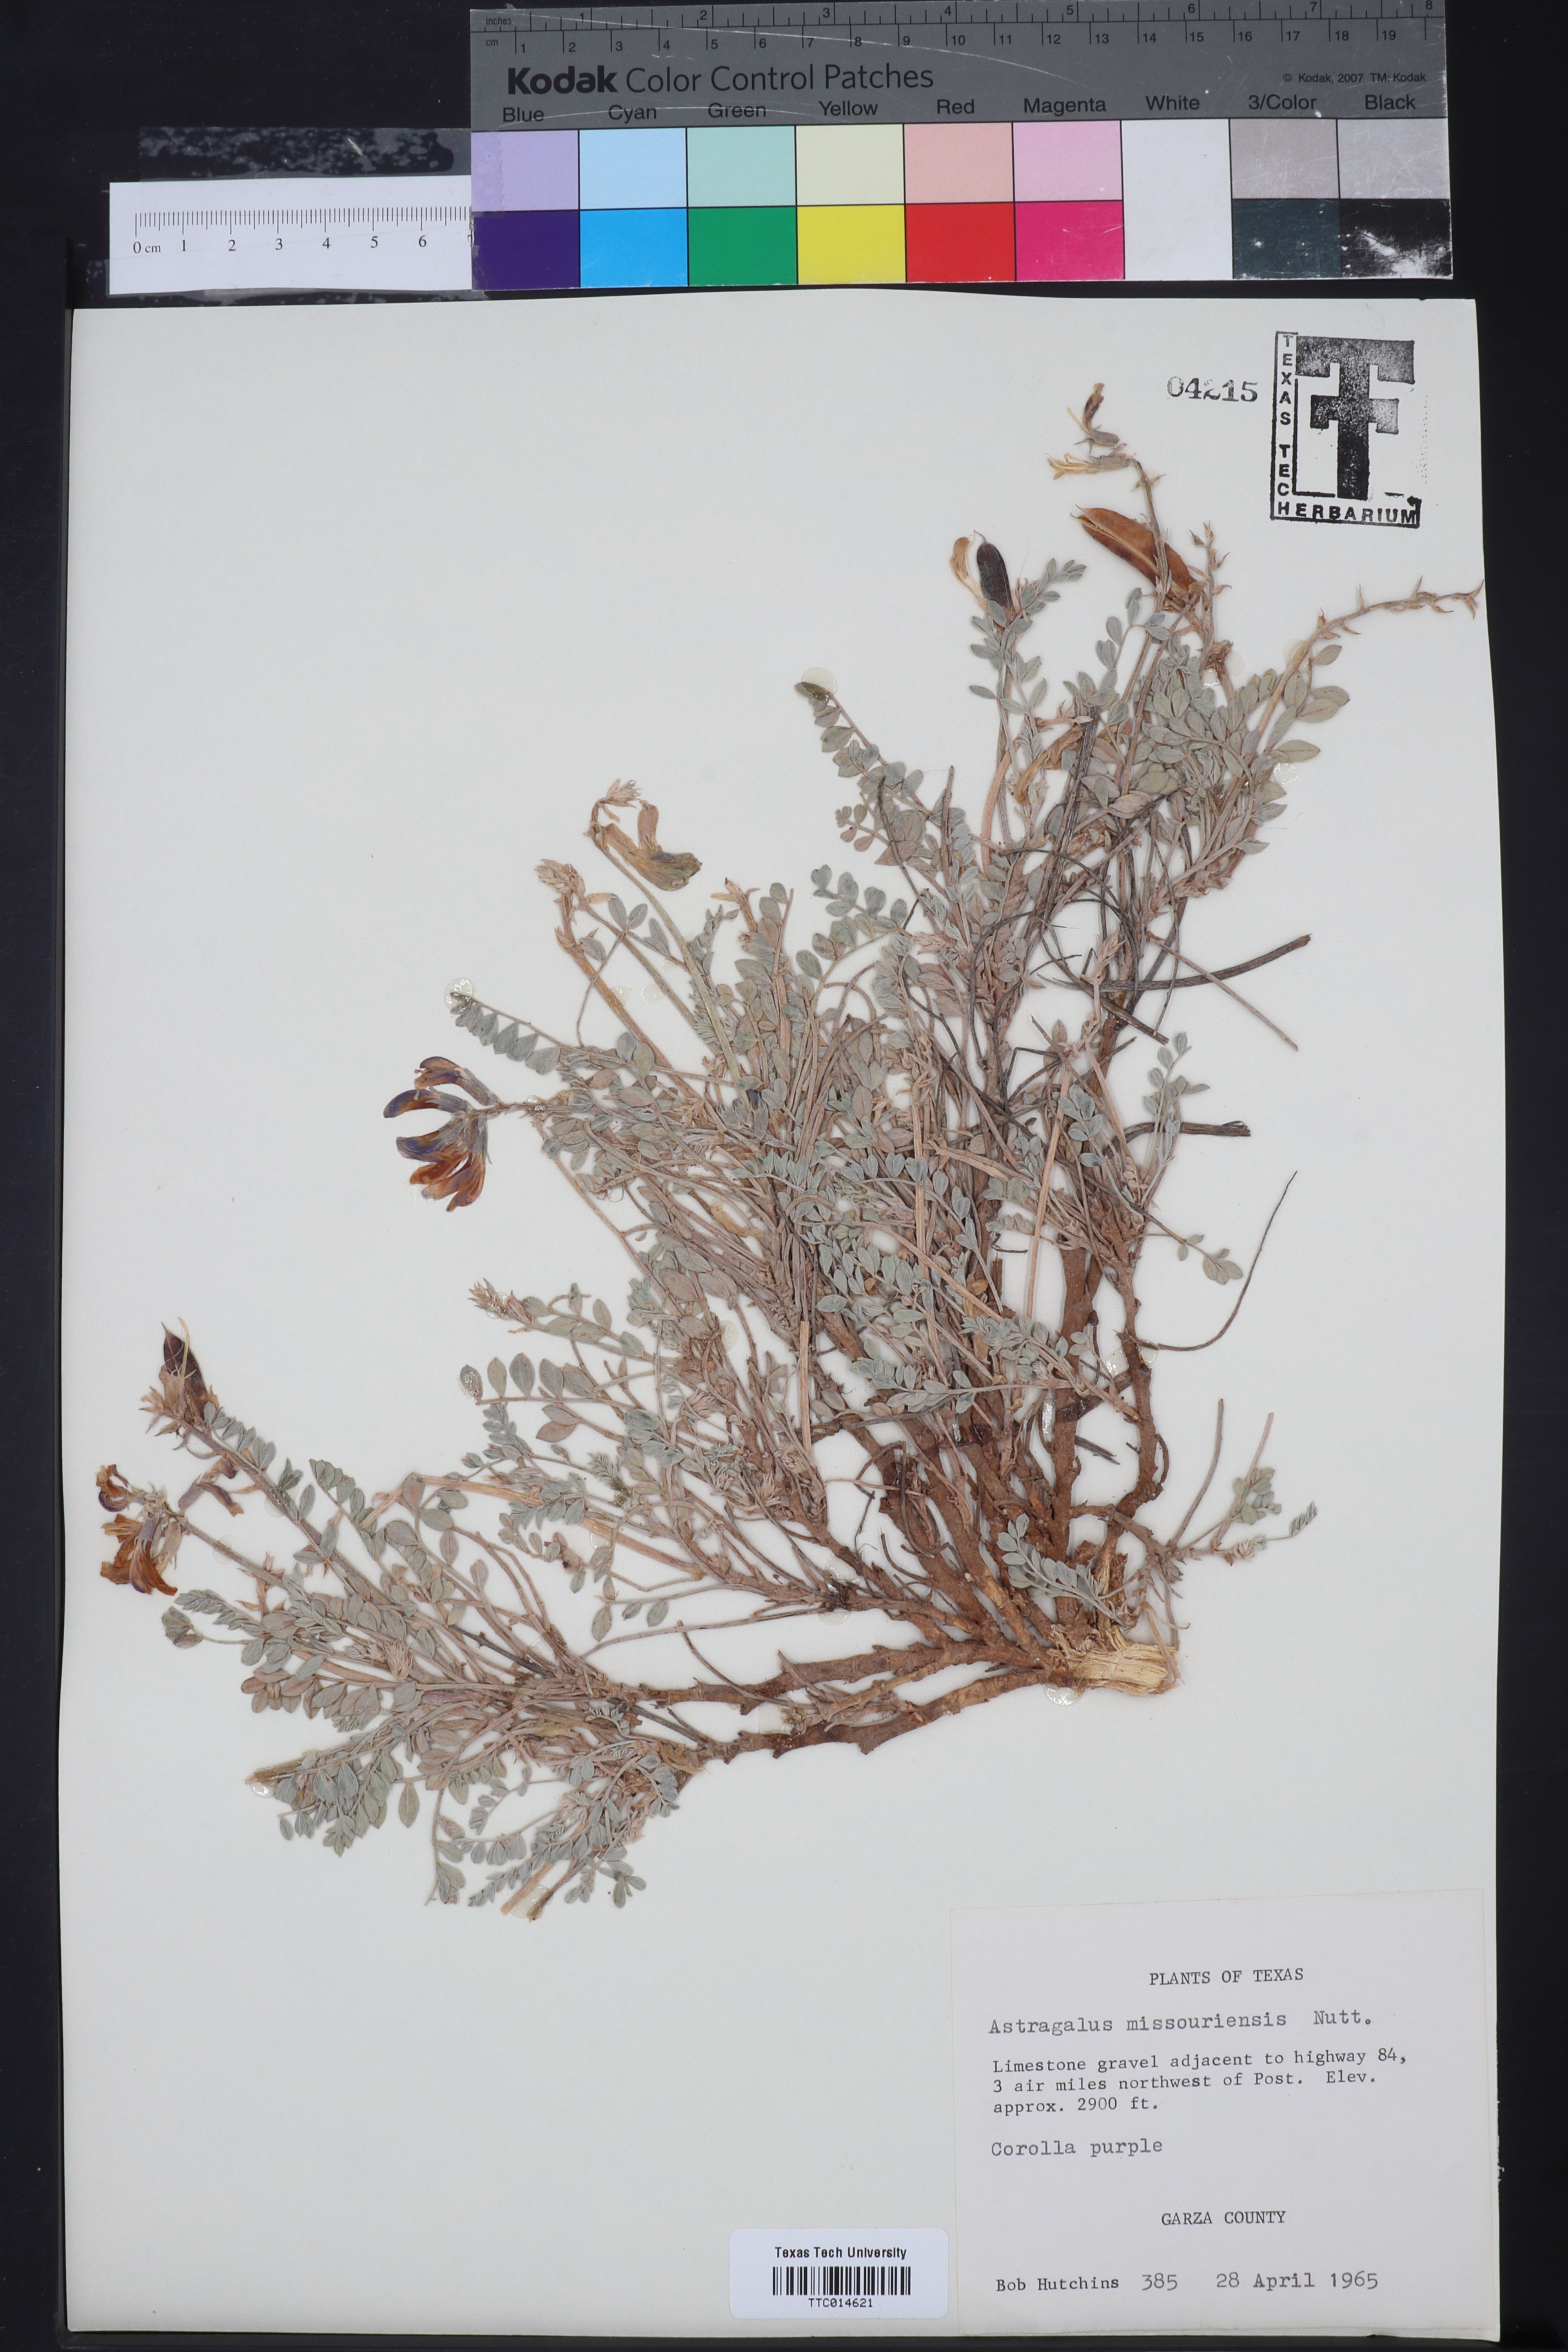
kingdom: Plantae
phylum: Tracheophyta
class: Magnoliopsida
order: Fabales
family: Fabaceae
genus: Astragalus
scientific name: Astragalus missouriensis
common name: Missouri milk-vetch
